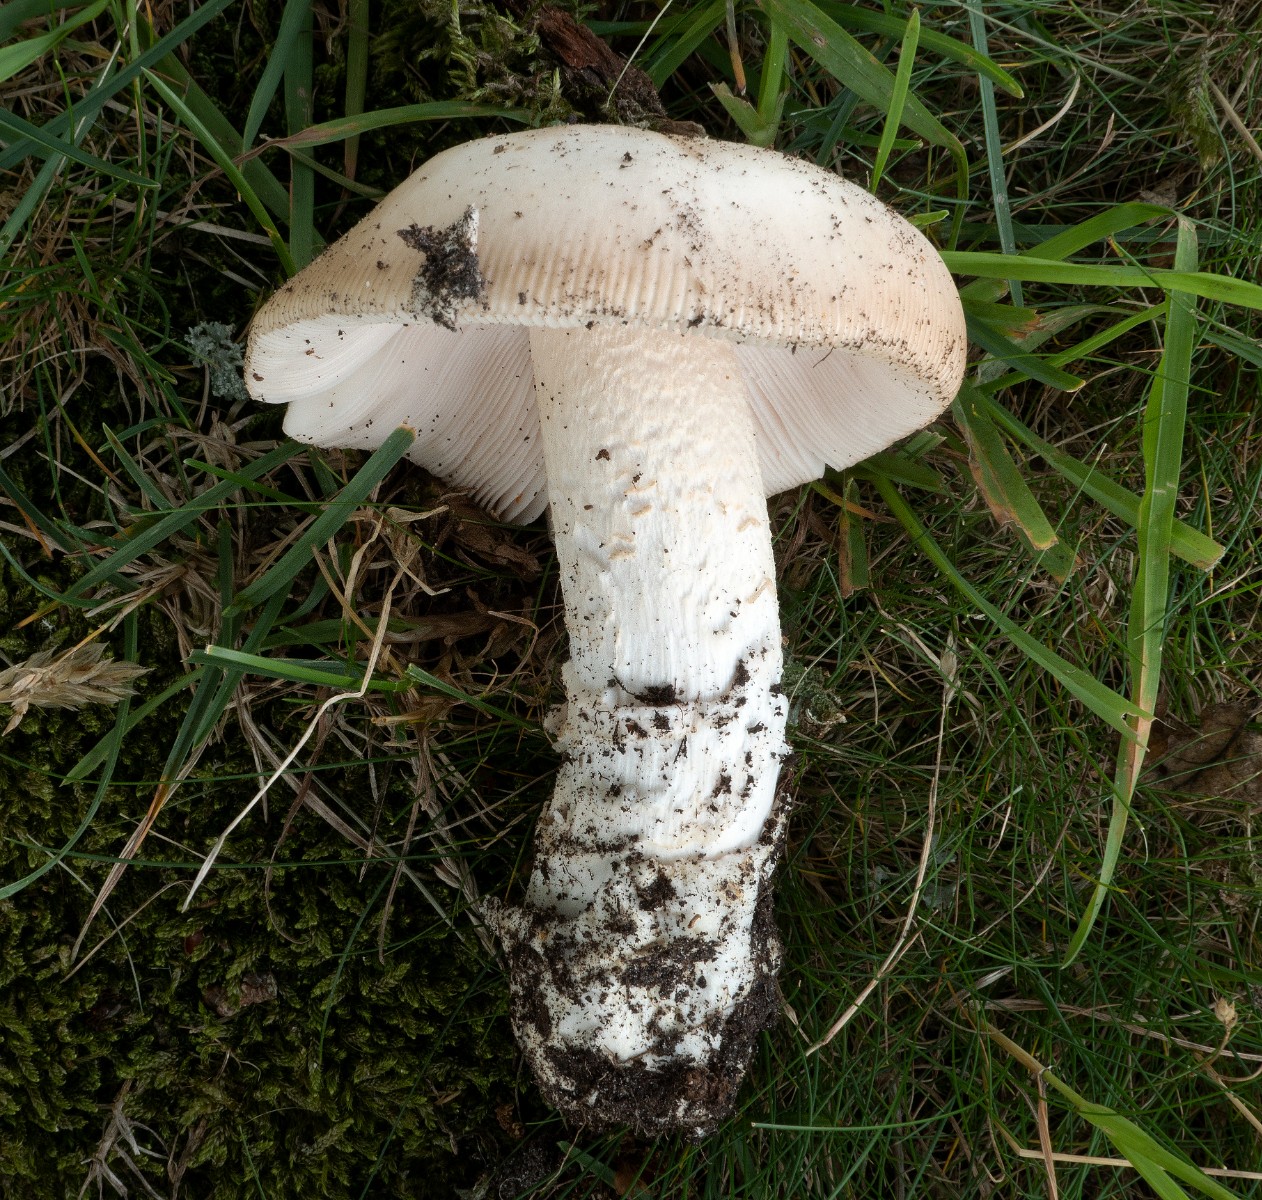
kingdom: Fungi
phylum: Basidiomycota
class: Agaricomycetes
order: Agaricales
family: Amanitaceae
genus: Amanita
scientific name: Amanita lividopallescens
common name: afblegende kam-fluesvamp
